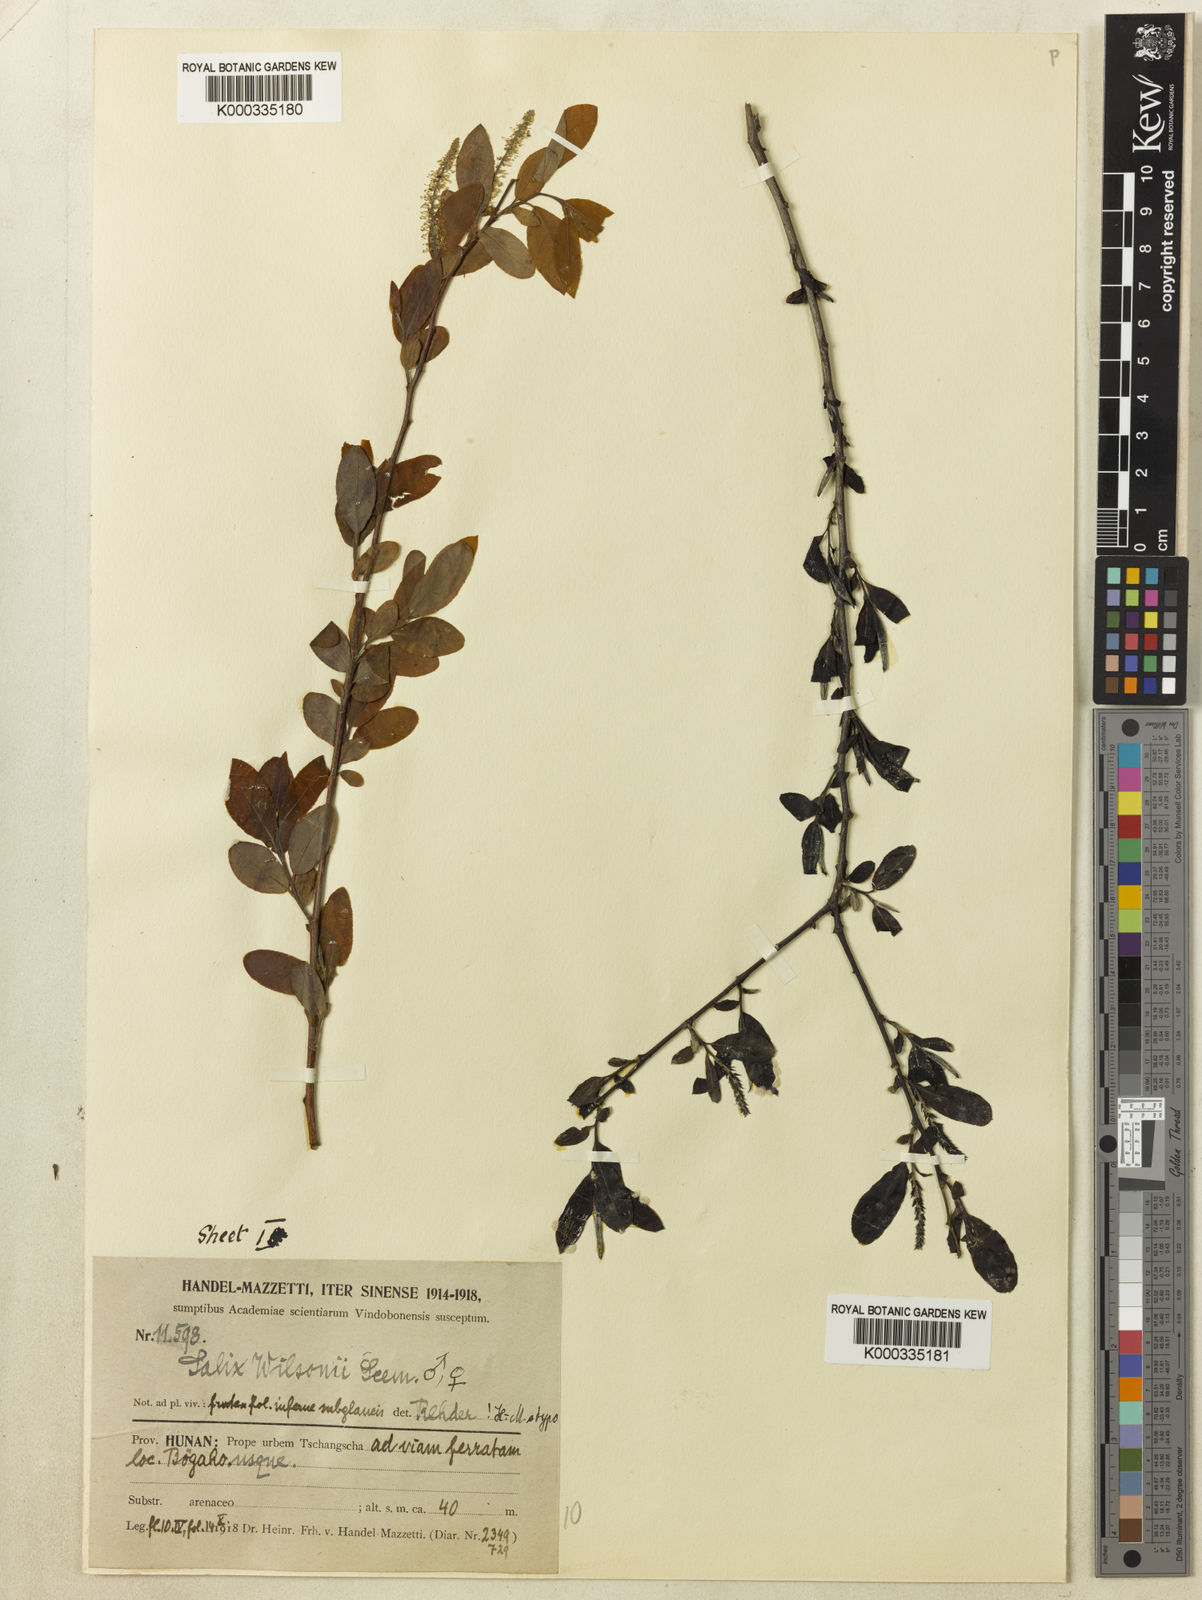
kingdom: Plantae
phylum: Tracheophyta
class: Magnoliopsida
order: Malpighiales
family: Salicaceae
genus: Salix
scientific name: Salix wilsonii
